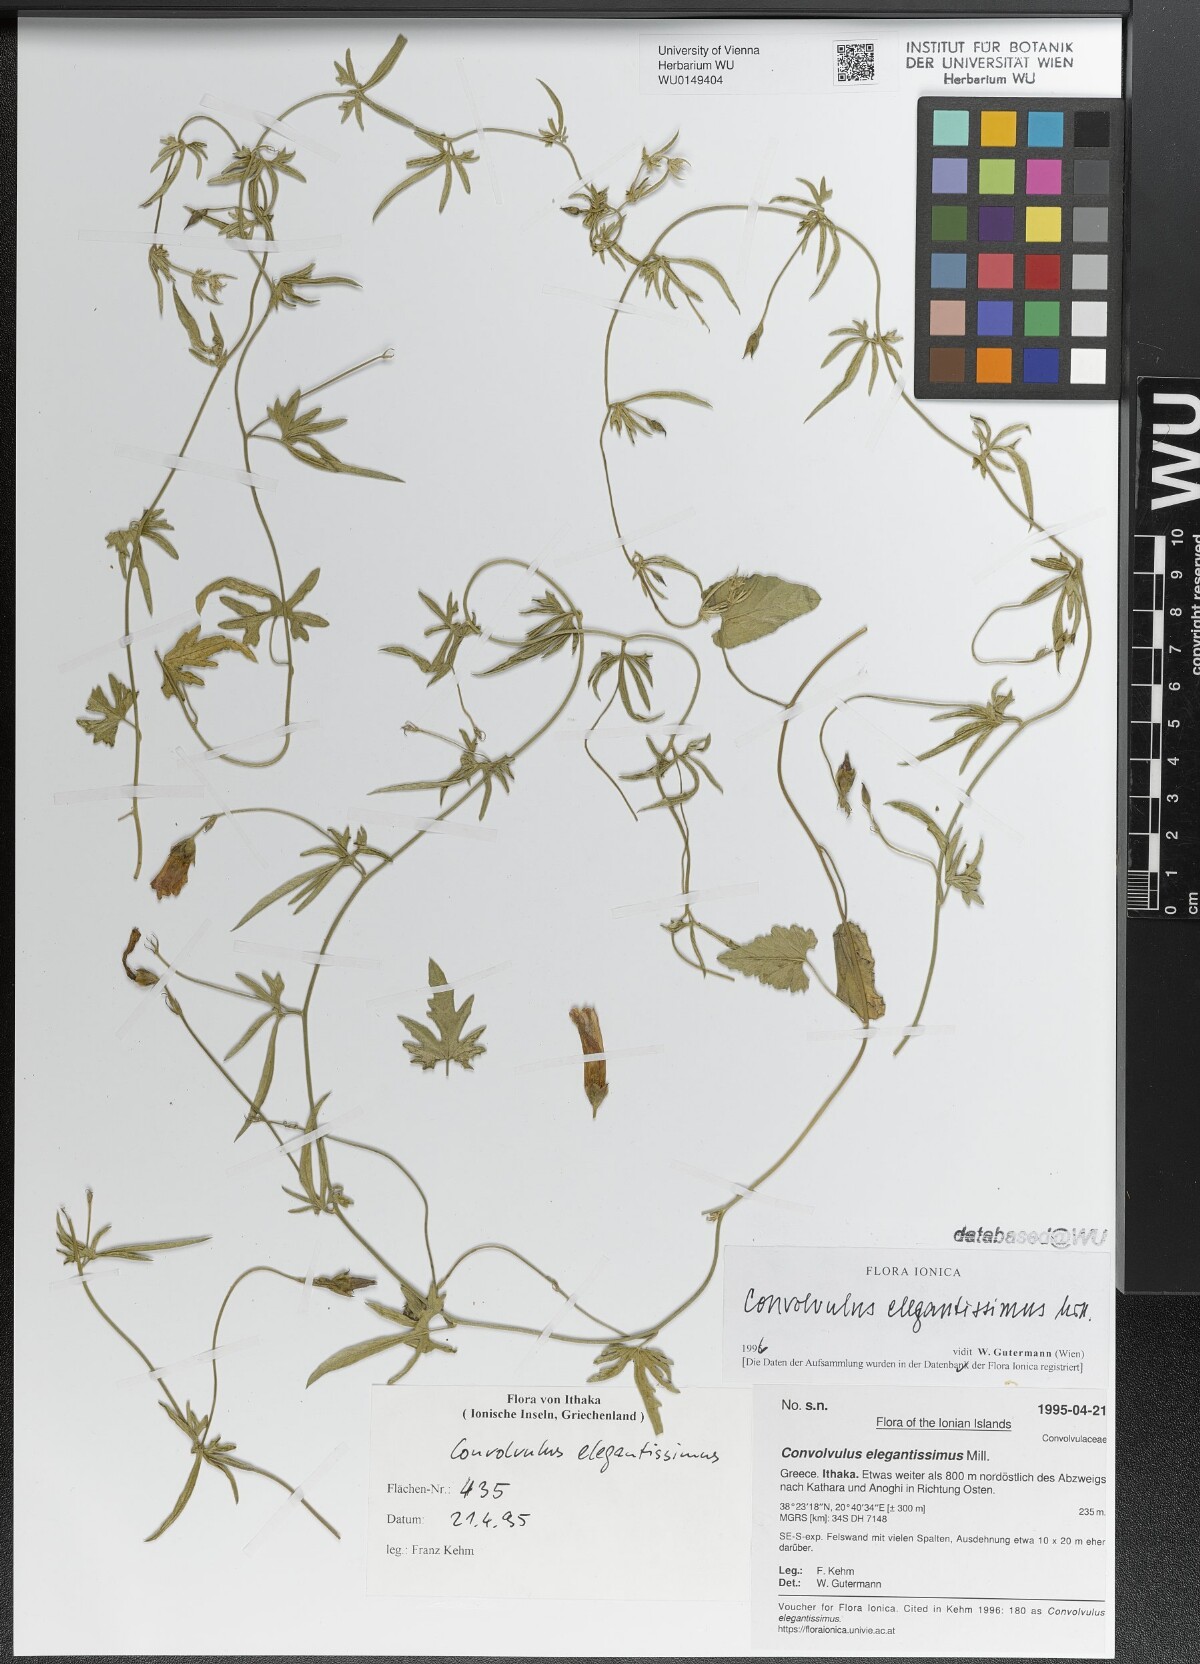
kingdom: Plantae
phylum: Tracheophyta
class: Magnoliopsida
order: Solanales
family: Convolvulaceae
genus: Convolvulus
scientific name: Convolvulus elegantissimus
